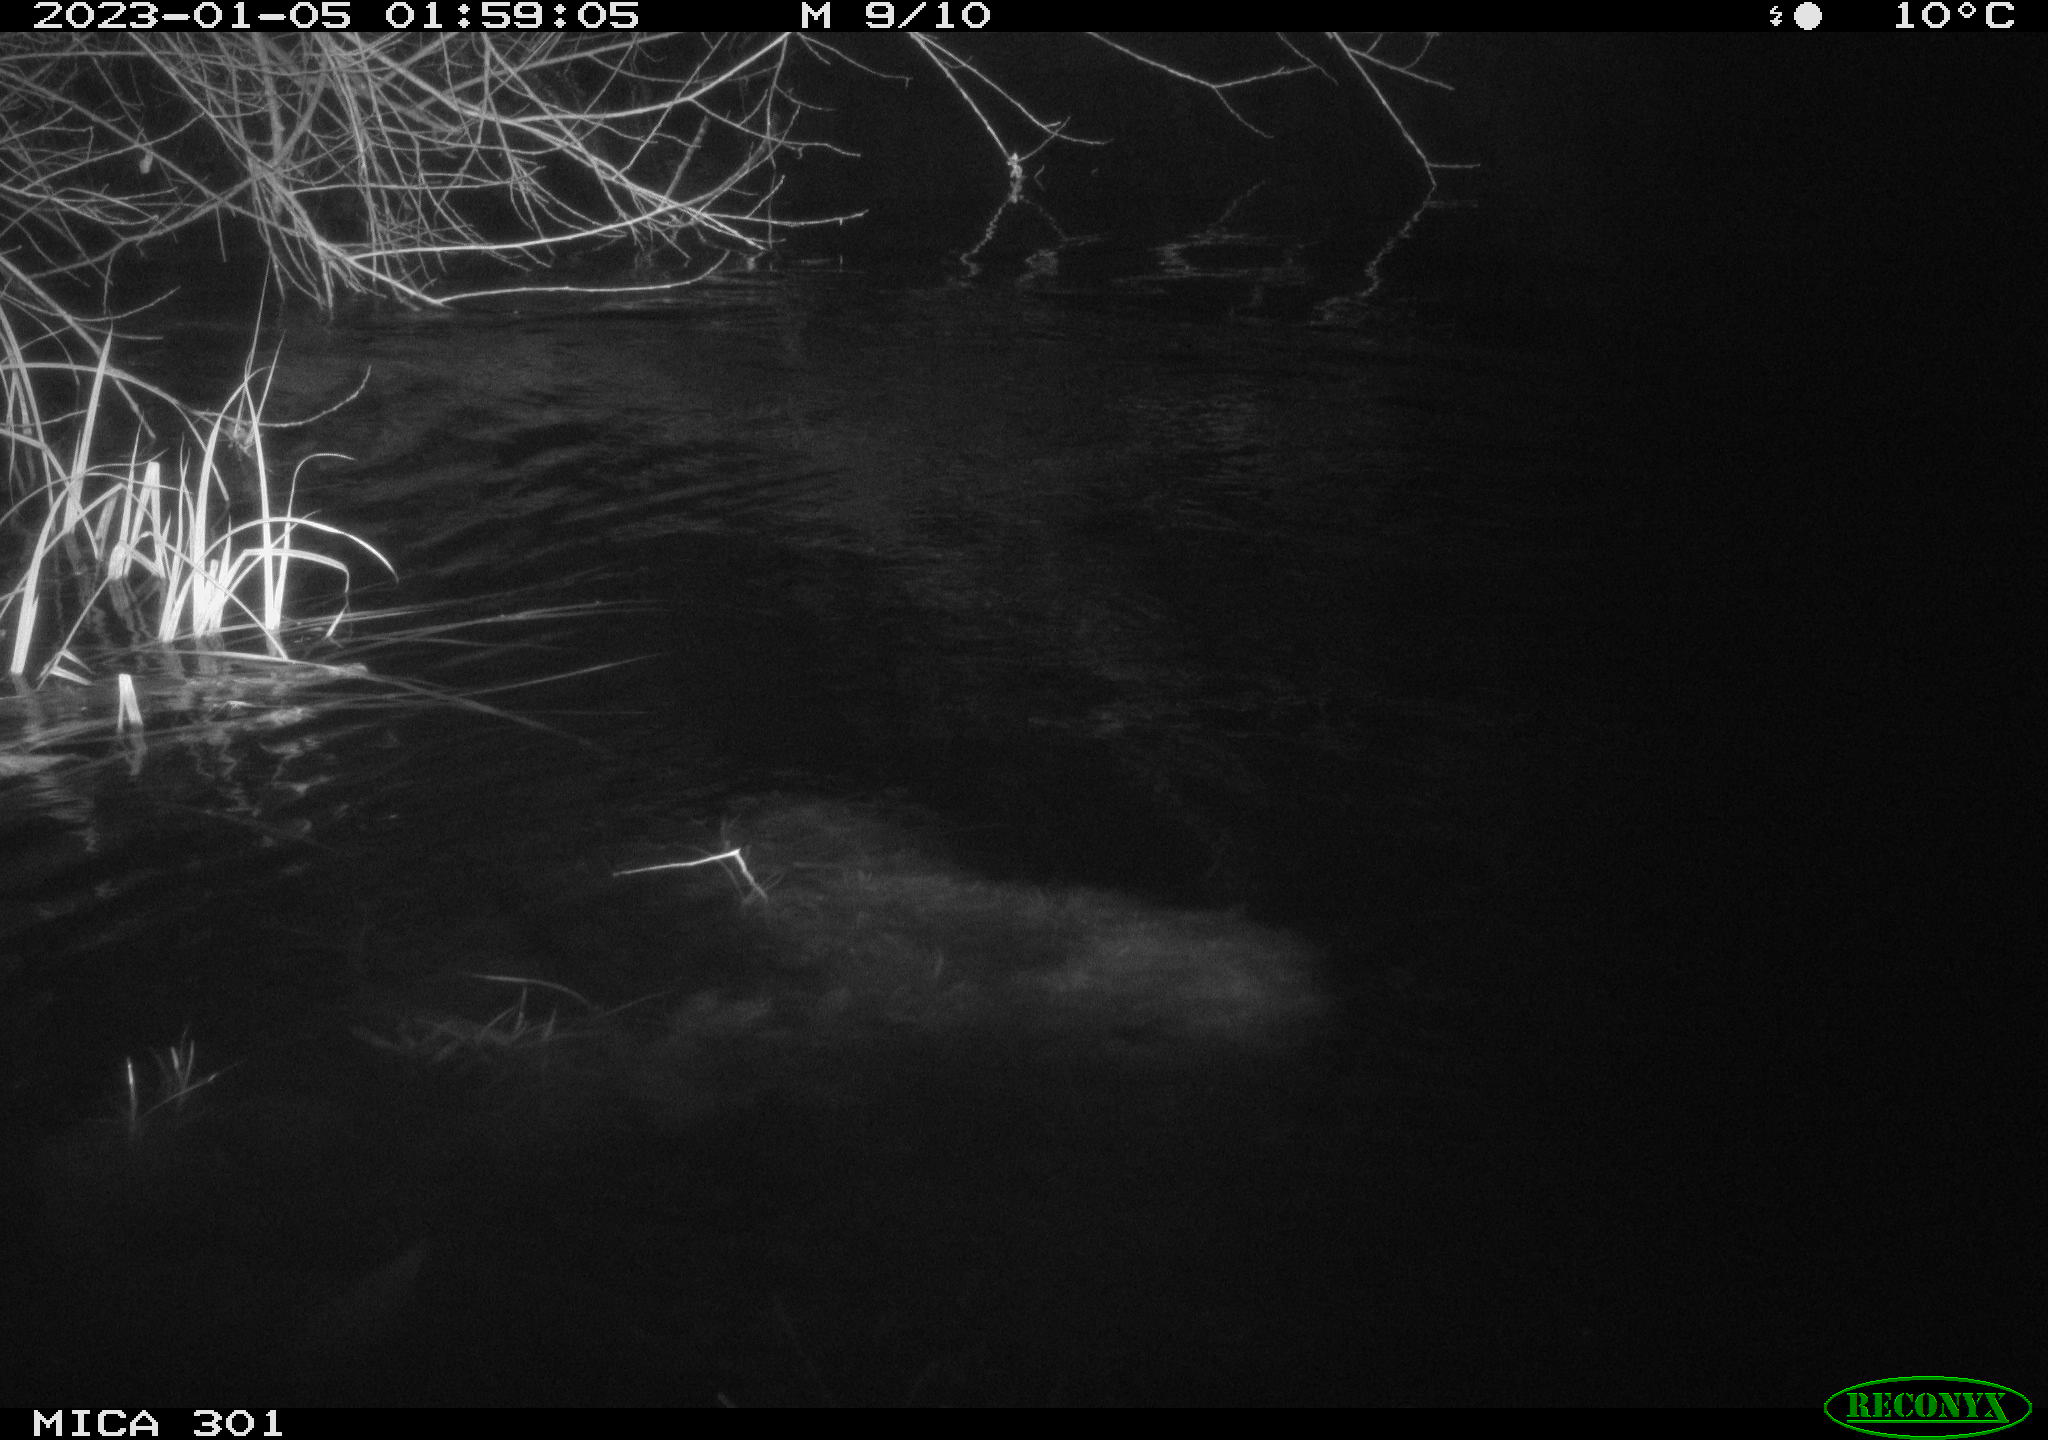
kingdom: Animalia
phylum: Chordata
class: Mammalia
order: Rodentia
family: Castoridae
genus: Castor
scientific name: Castor fiber
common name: Eurasian beaver
